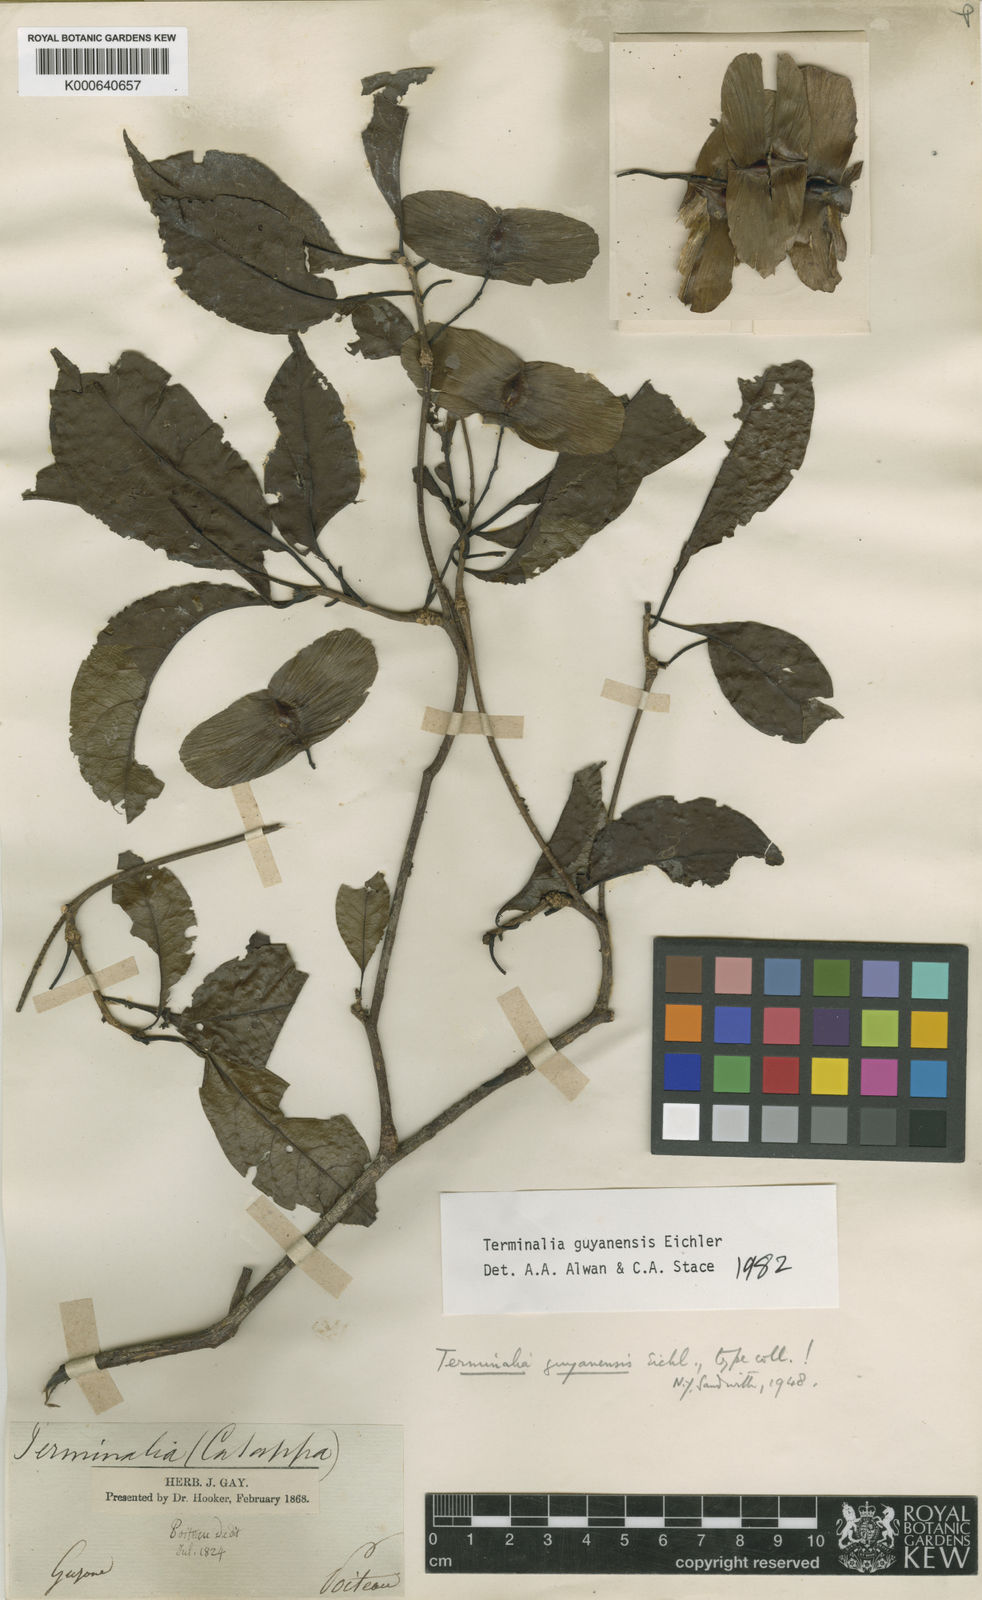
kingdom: Plantae
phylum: Tracheophyta
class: Magnoliopsida
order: Myrtales
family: Combretaceae
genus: Terminalia
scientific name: Terminalia guyanensis
